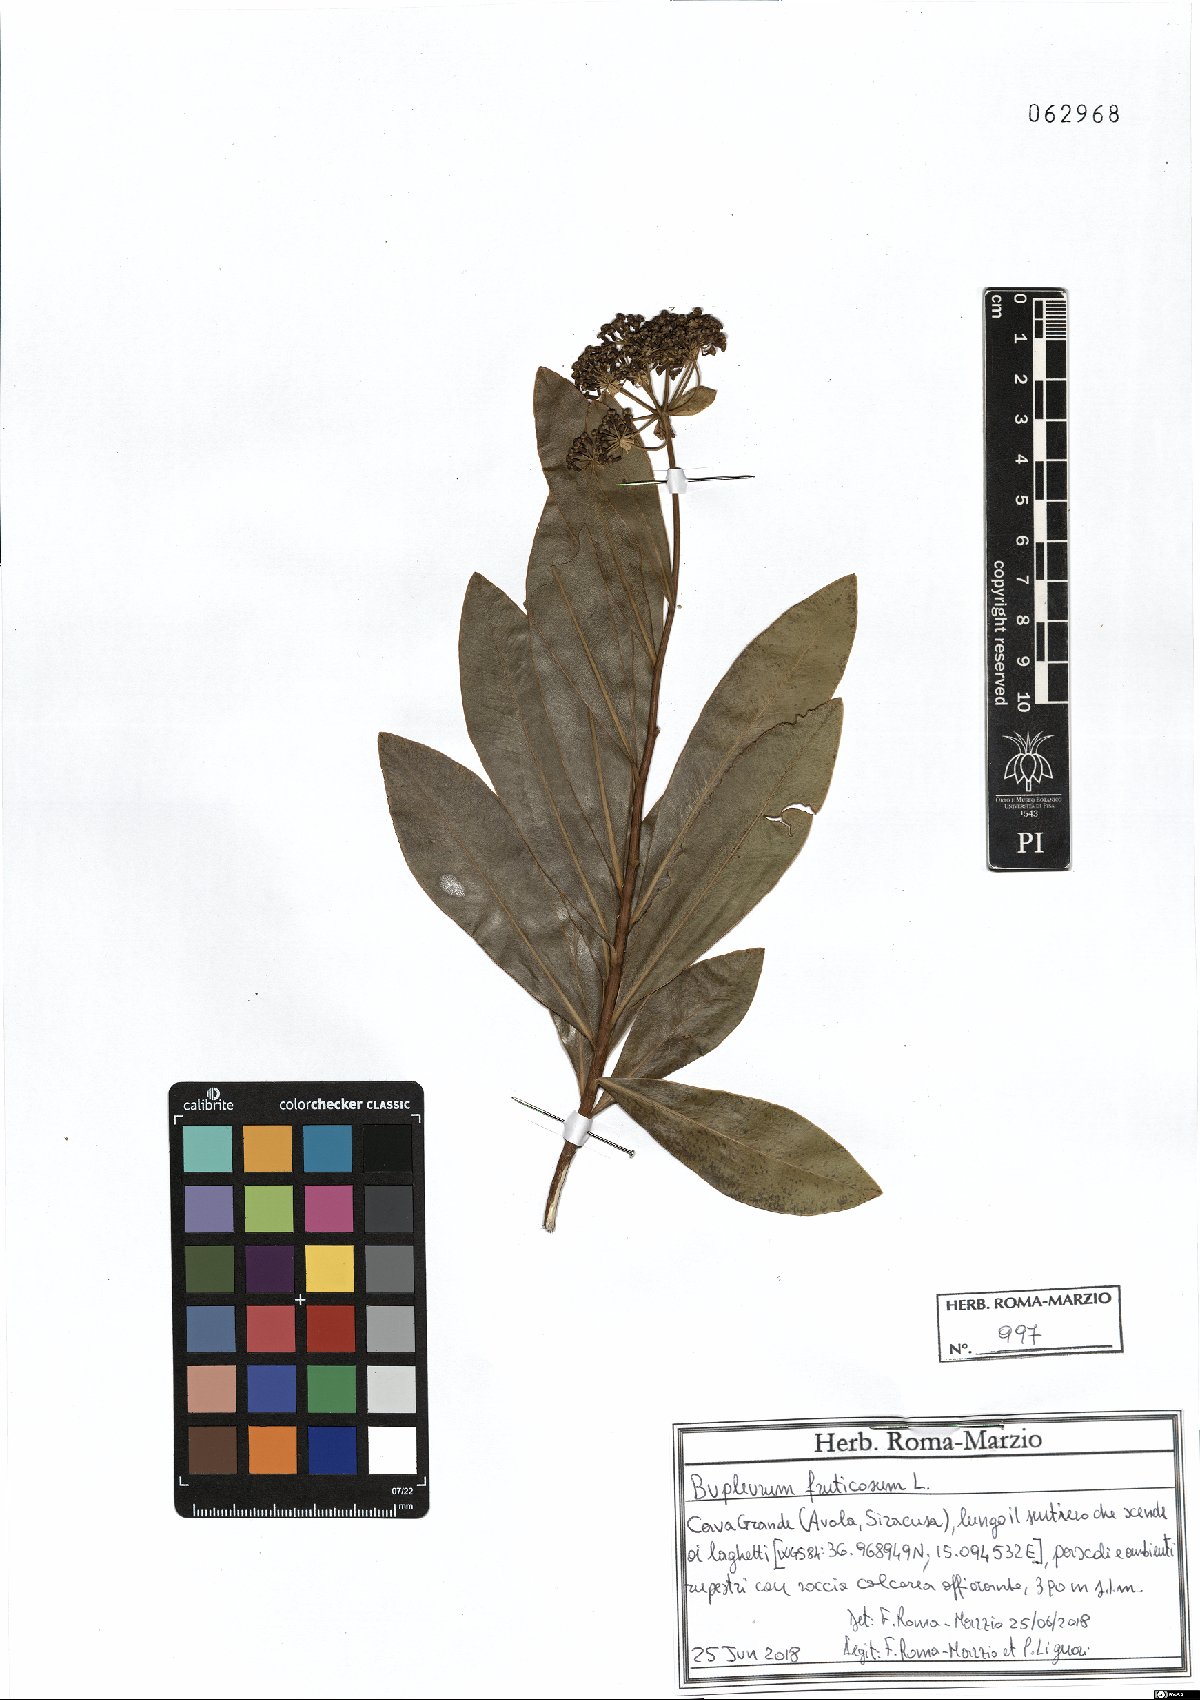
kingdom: Plantae
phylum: Tracheophyta
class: Magnoliopsida
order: Apiales
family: Apiaceae
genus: Bupleurum
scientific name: Bupleurum fruticosum
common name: Shrubby hare's-ear
